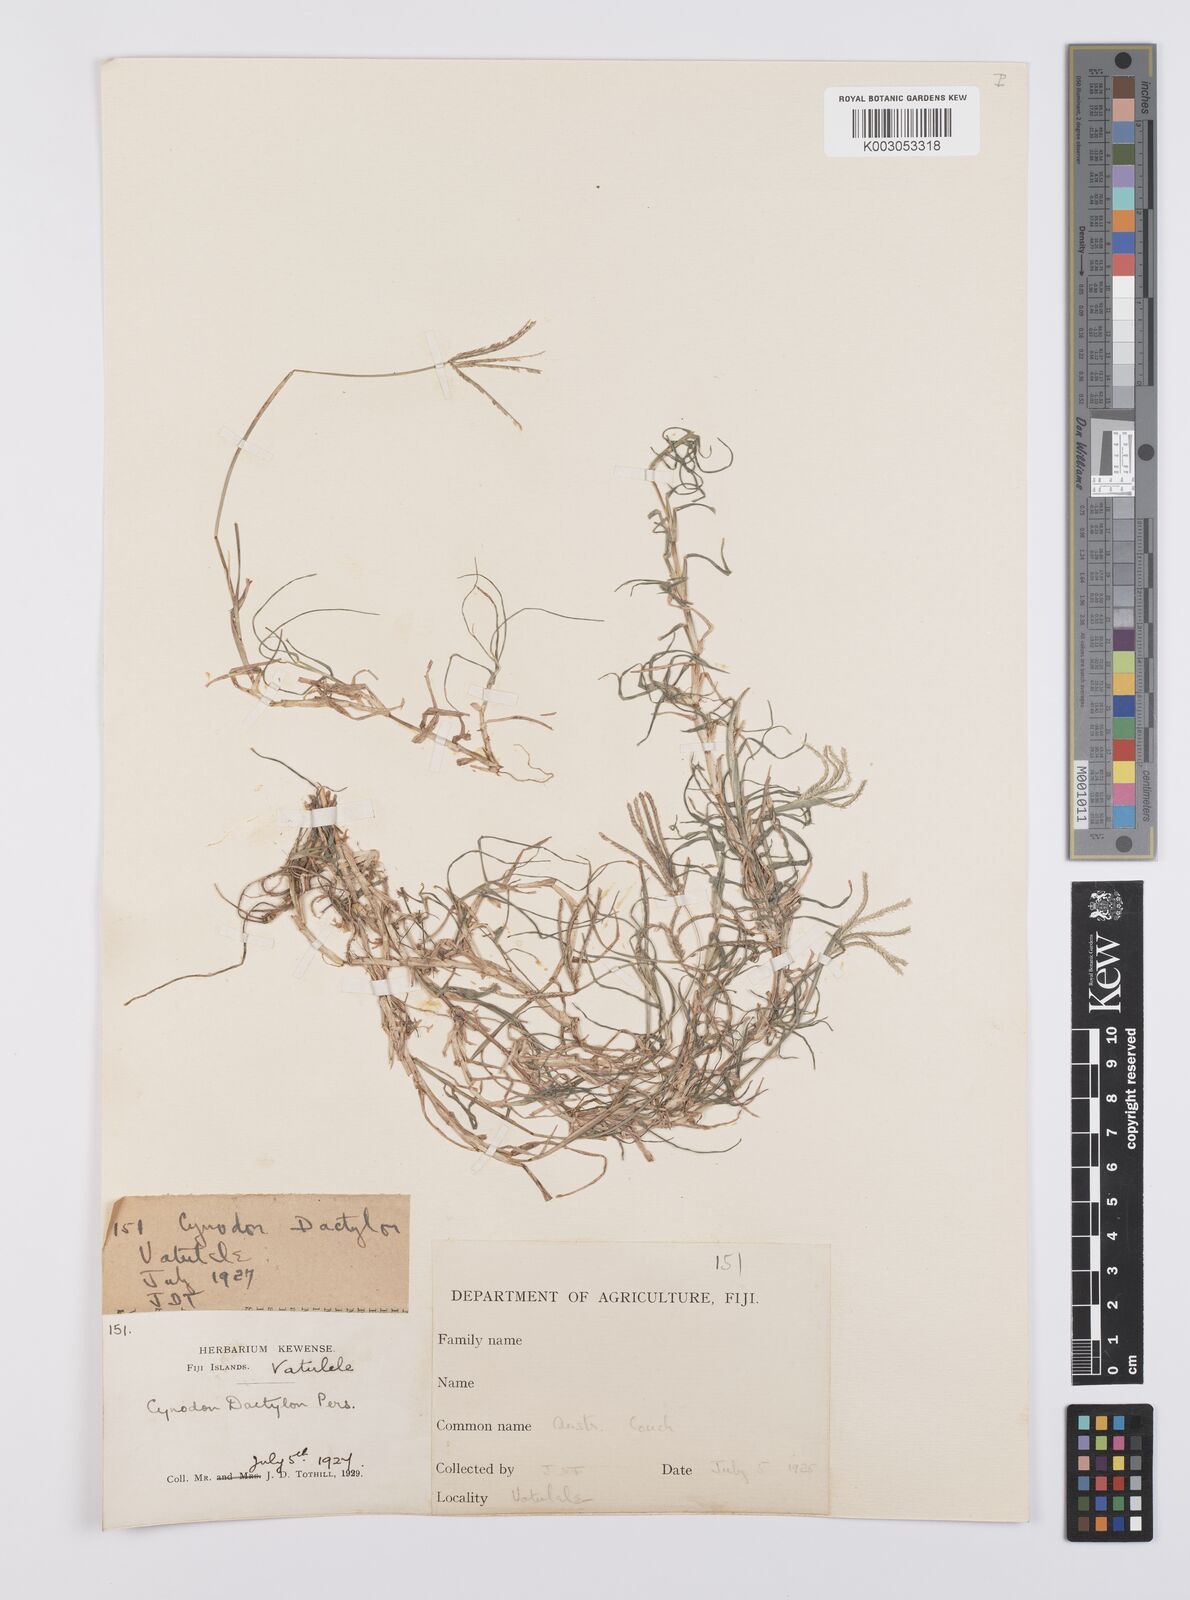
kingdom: Plantae
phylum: Tracheophyta
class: Liliopsida
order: Poales
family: Poaceae
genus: Cynodon
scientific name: Cynodon dactylon
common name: Bermuda grass
